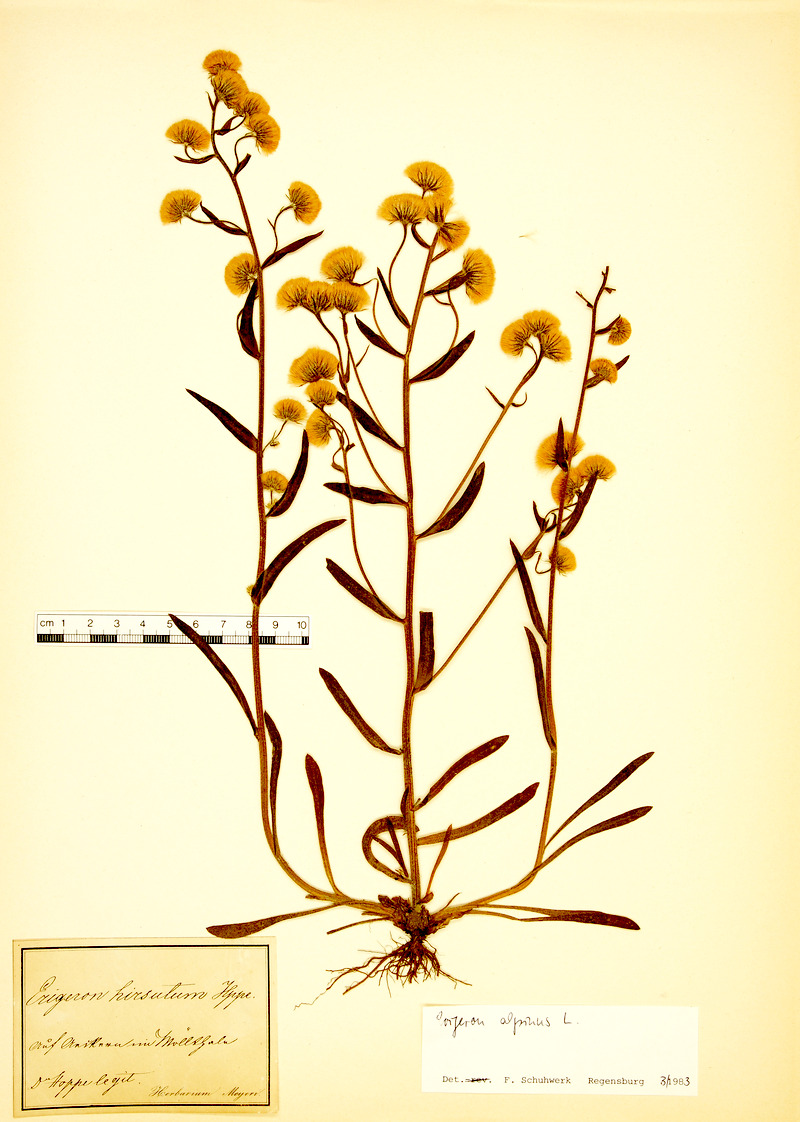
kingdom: Plantae
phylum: Tracheophyta
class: Magnoliopsida
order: Asterales
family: Asteraceae
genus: Erigeron
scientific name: Erigeron alpinus
